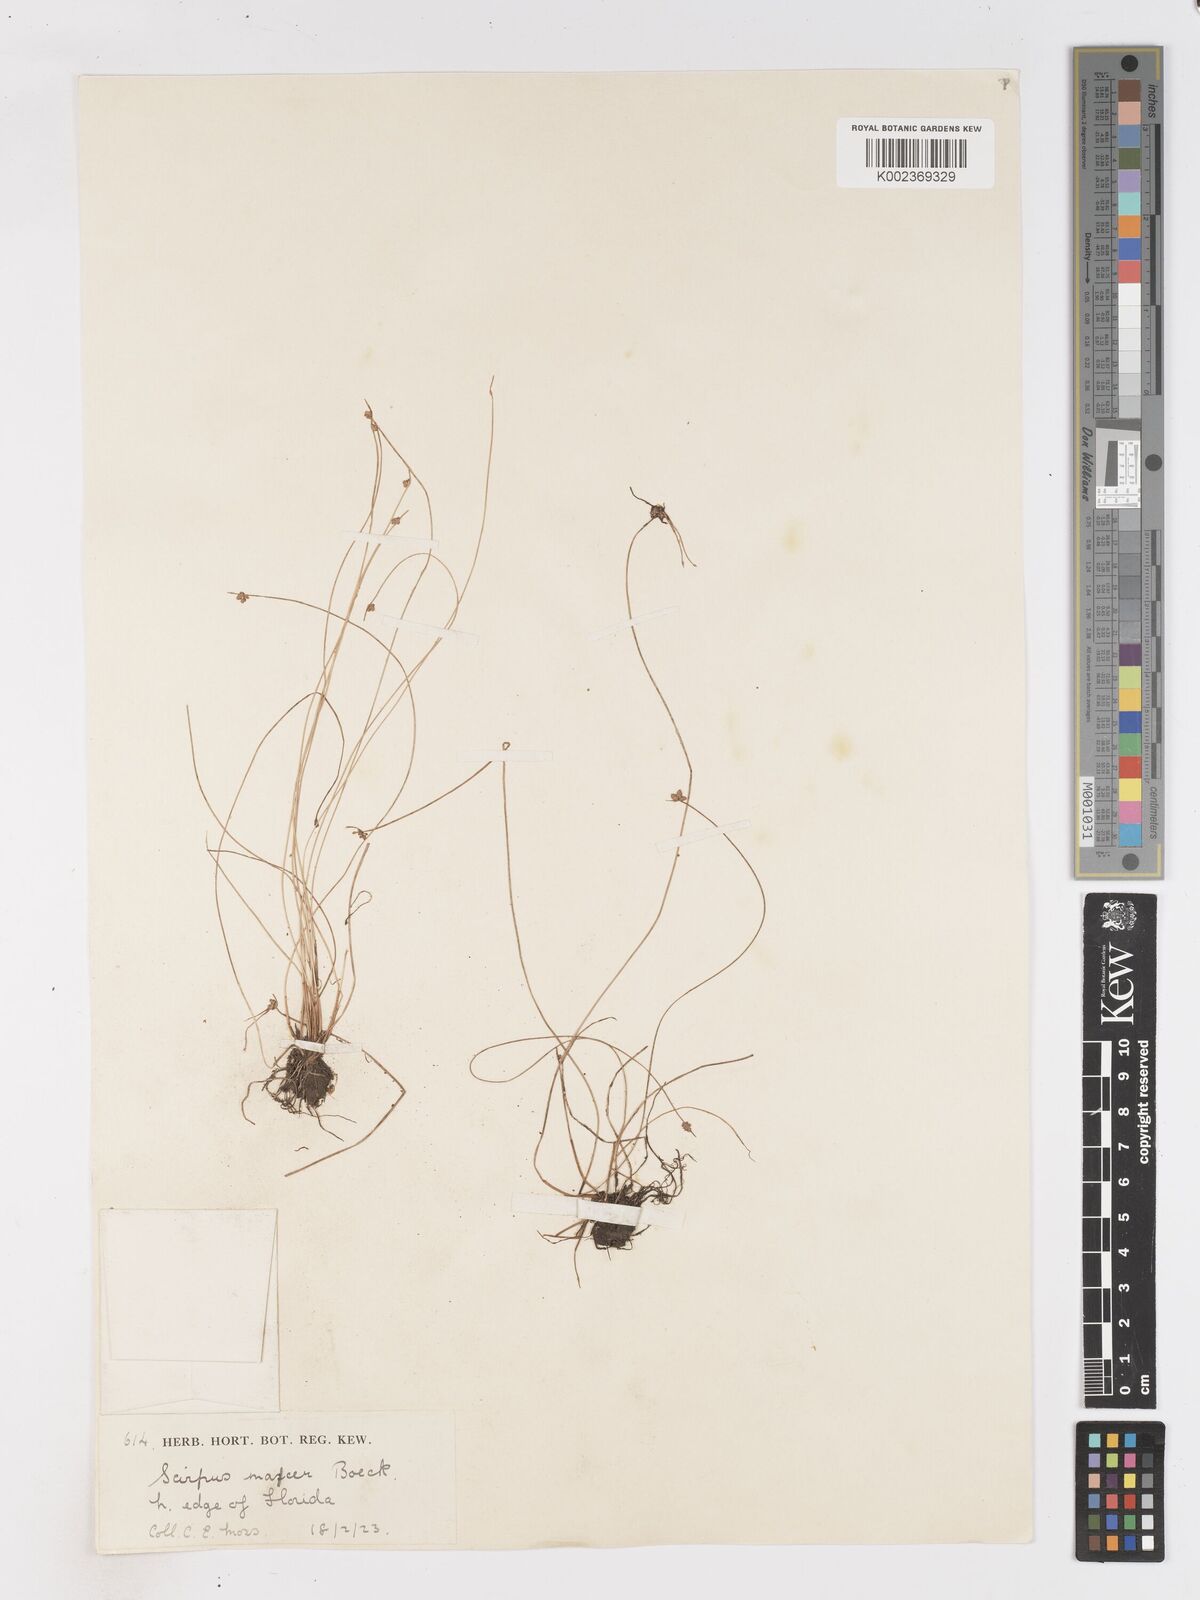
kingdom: Plantae
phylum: Tracheophyta
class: Liliopsida
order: Poales
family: Cyperaceae
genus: Isolepis
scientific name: Isolepis costata
